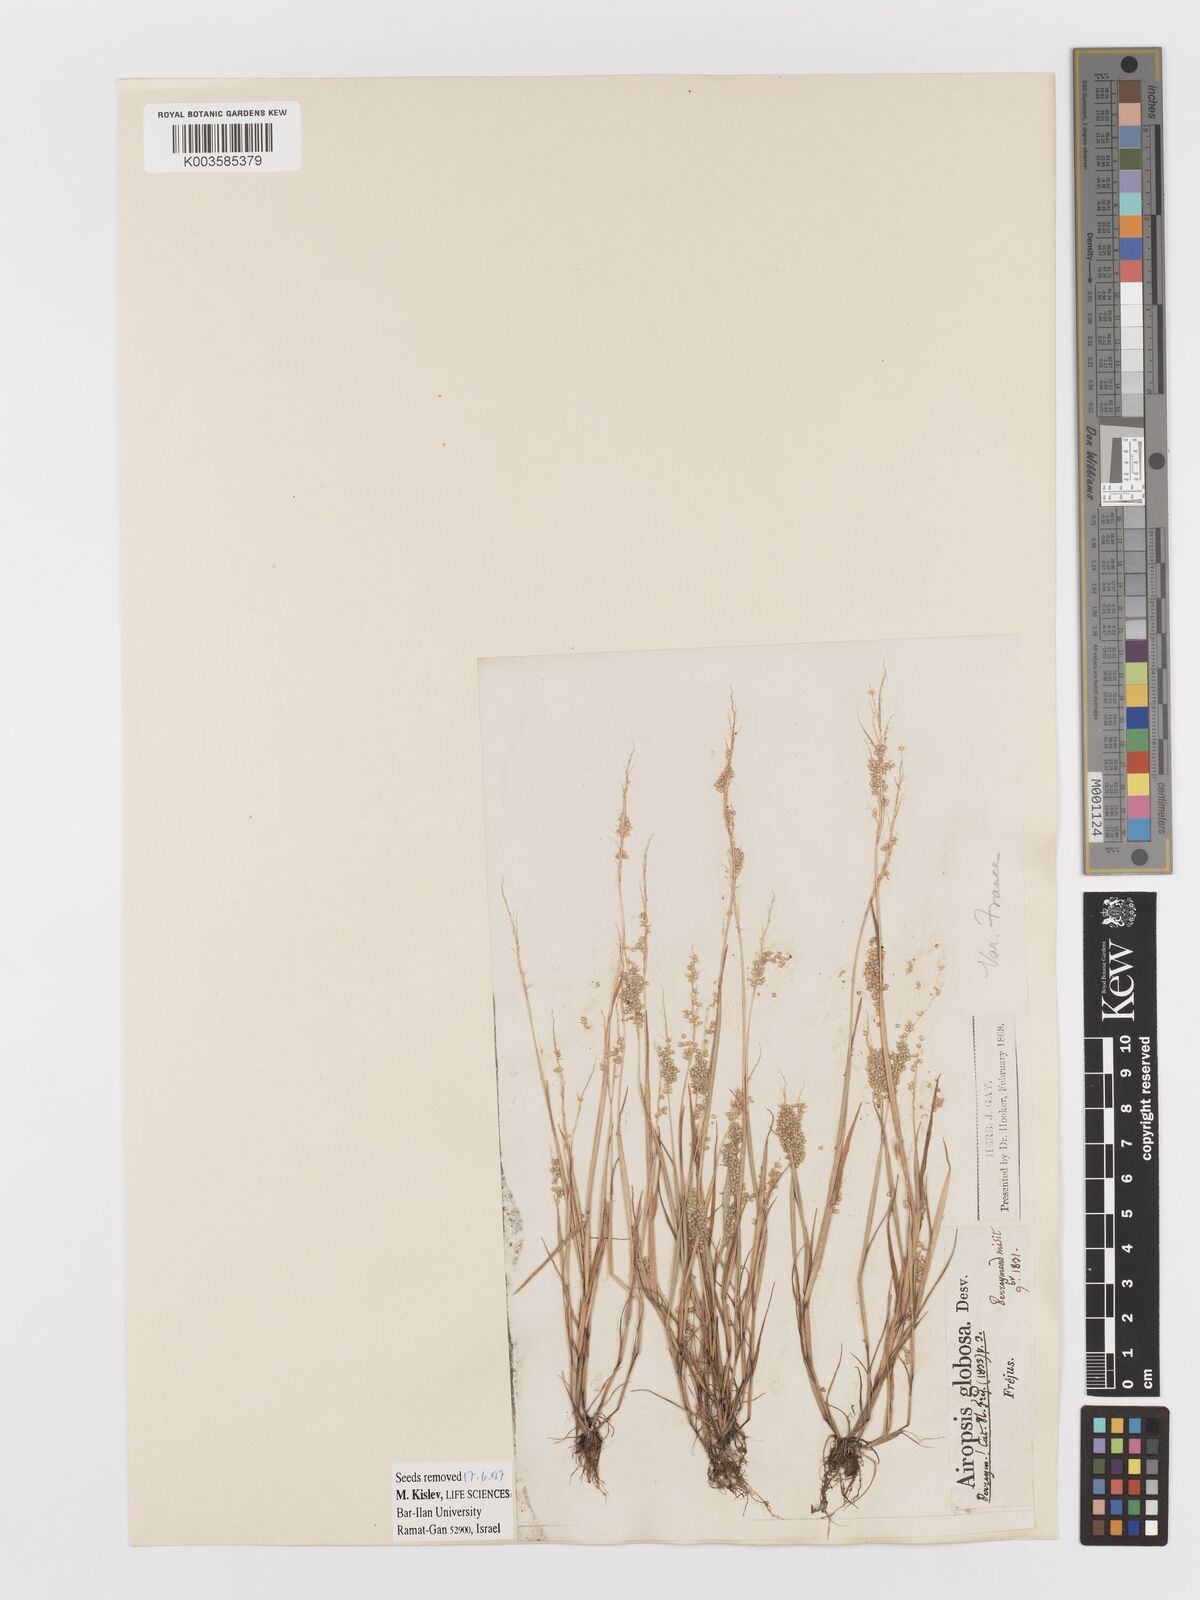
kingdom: Plantae
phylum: Tracheophyta
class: Liliopsida
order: Poales
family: Poaceae
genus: Airopsis
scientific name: Airopsis tenella
